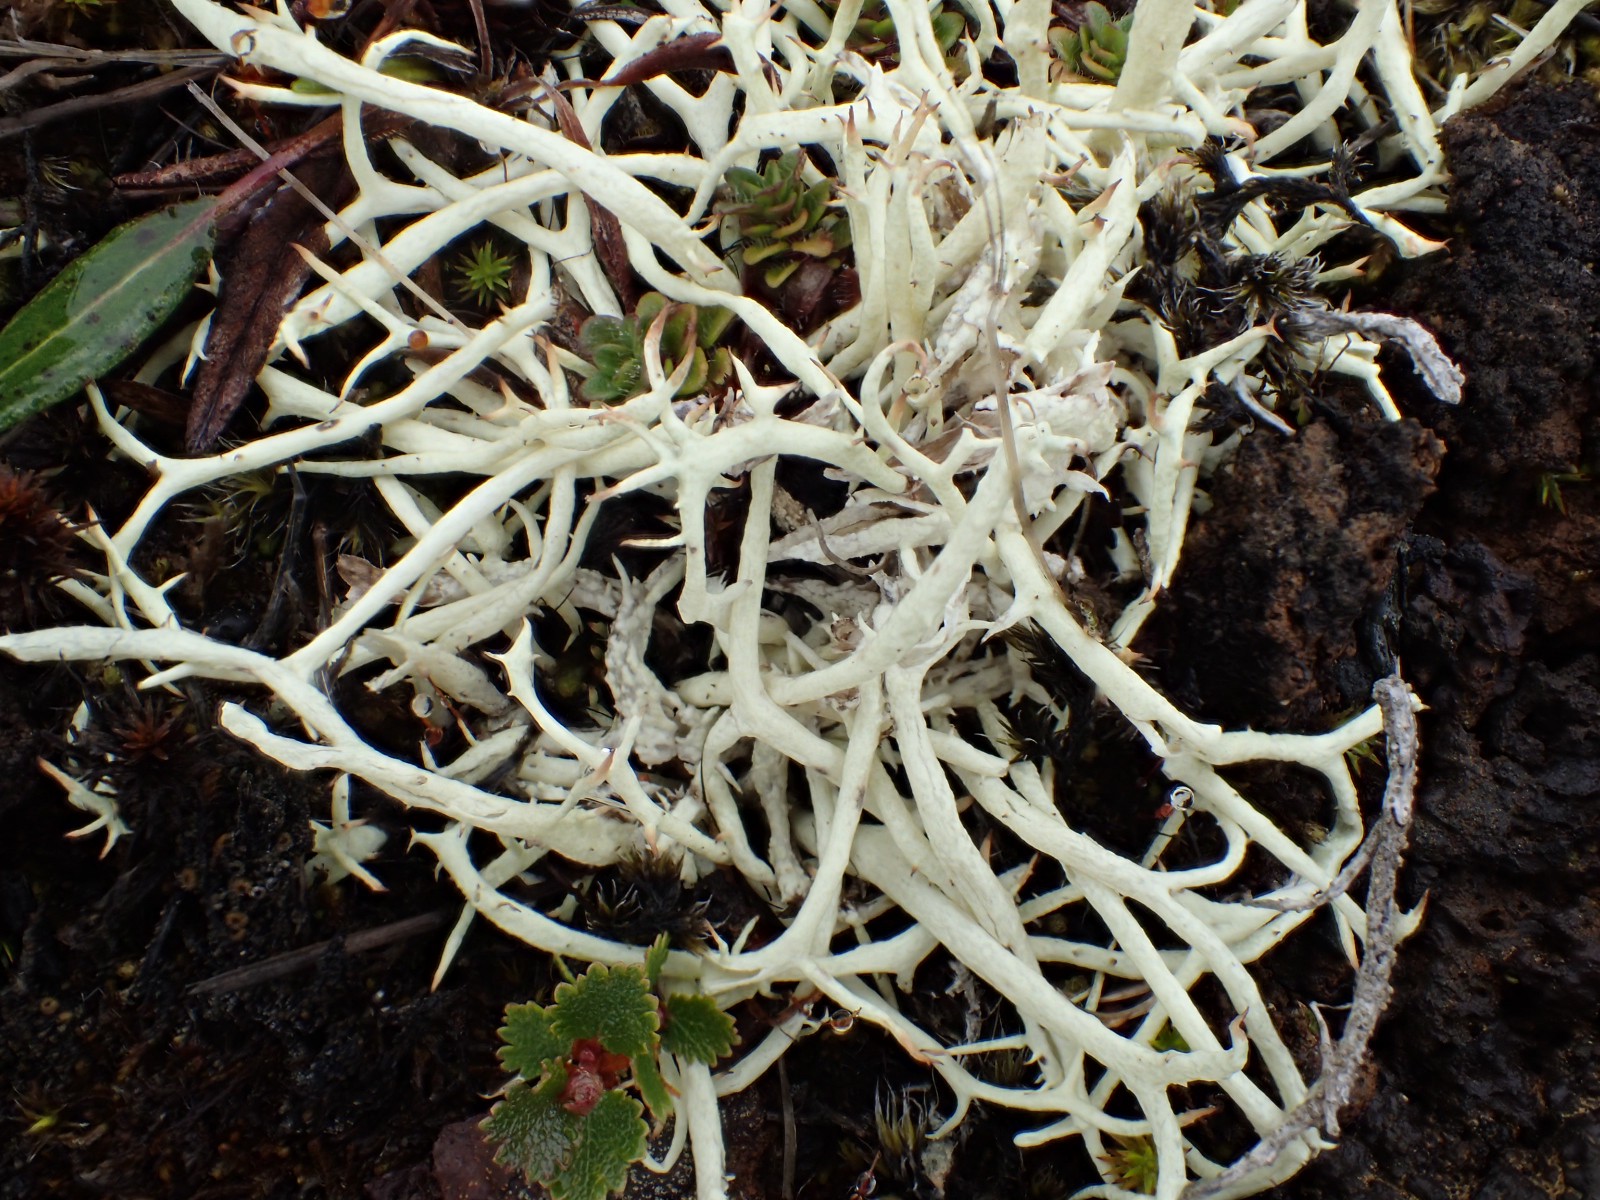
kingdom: Fungi
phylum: Ascomycota
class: Lecanoromycetes
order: Lecanorales
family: Cladoniaceae
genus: Cladonia
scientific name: Cladonia uncialis
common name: pigget bægerlav
